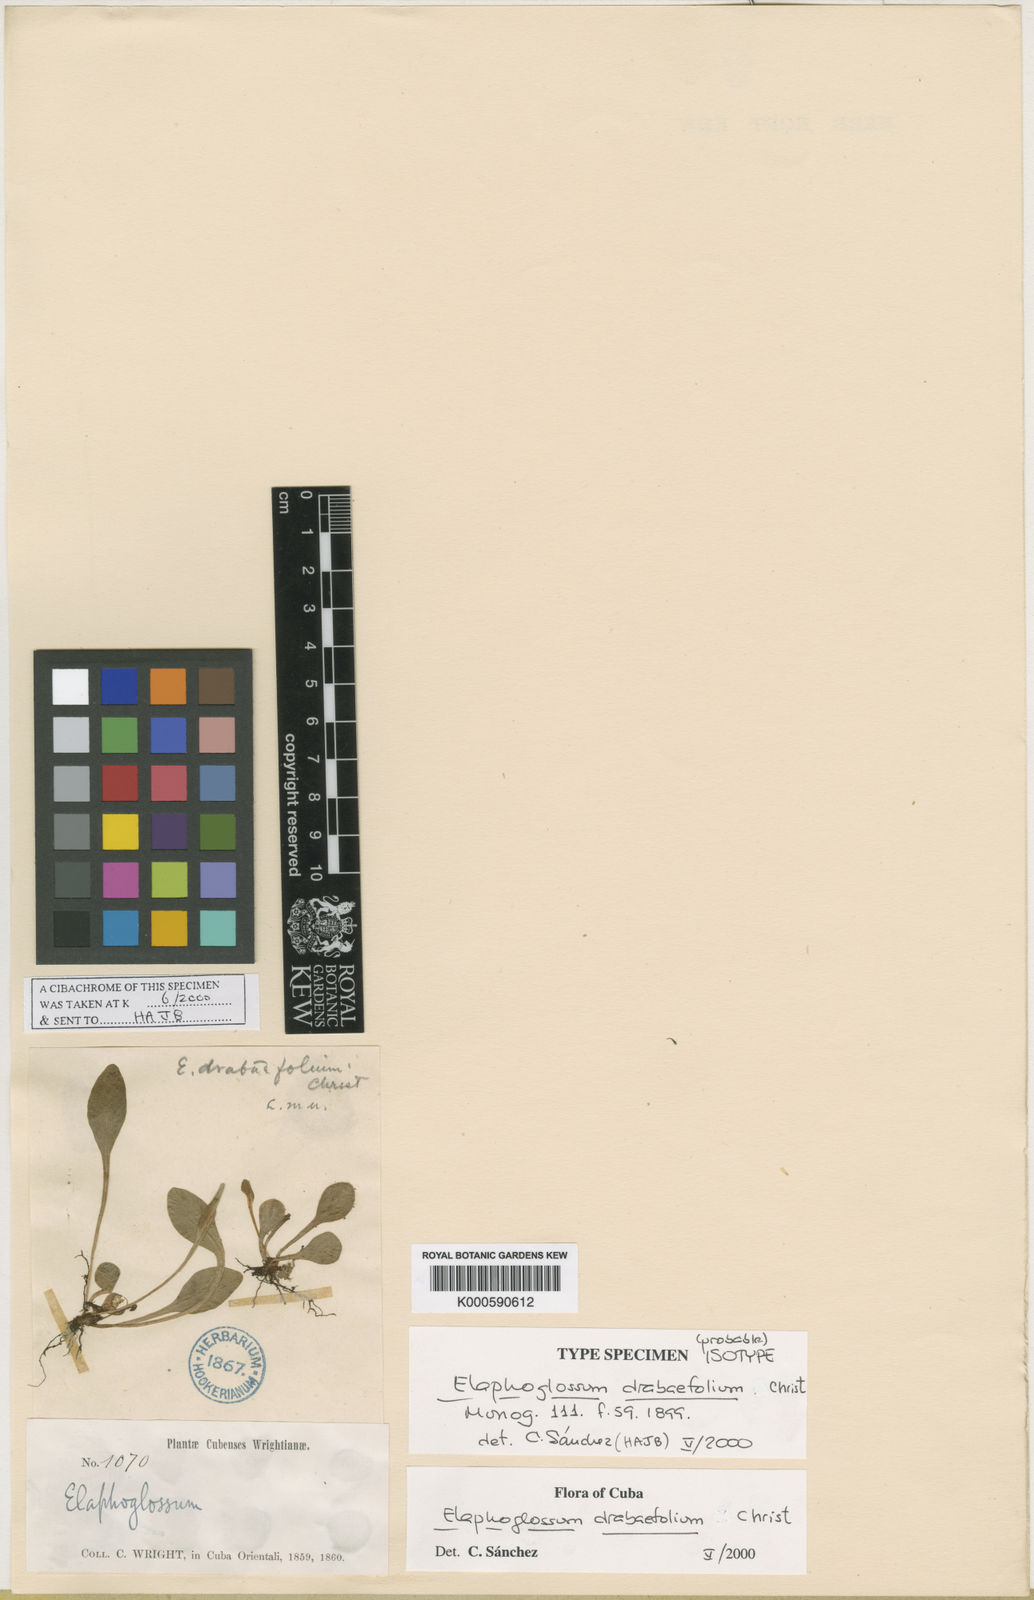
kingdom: Plantae
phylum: Tracheophyta
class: Polypodiopsida
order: Polypodiales
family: Dryopteridaceae
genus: Elaphoglossum
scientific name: Elaphoglossum drabifolium
